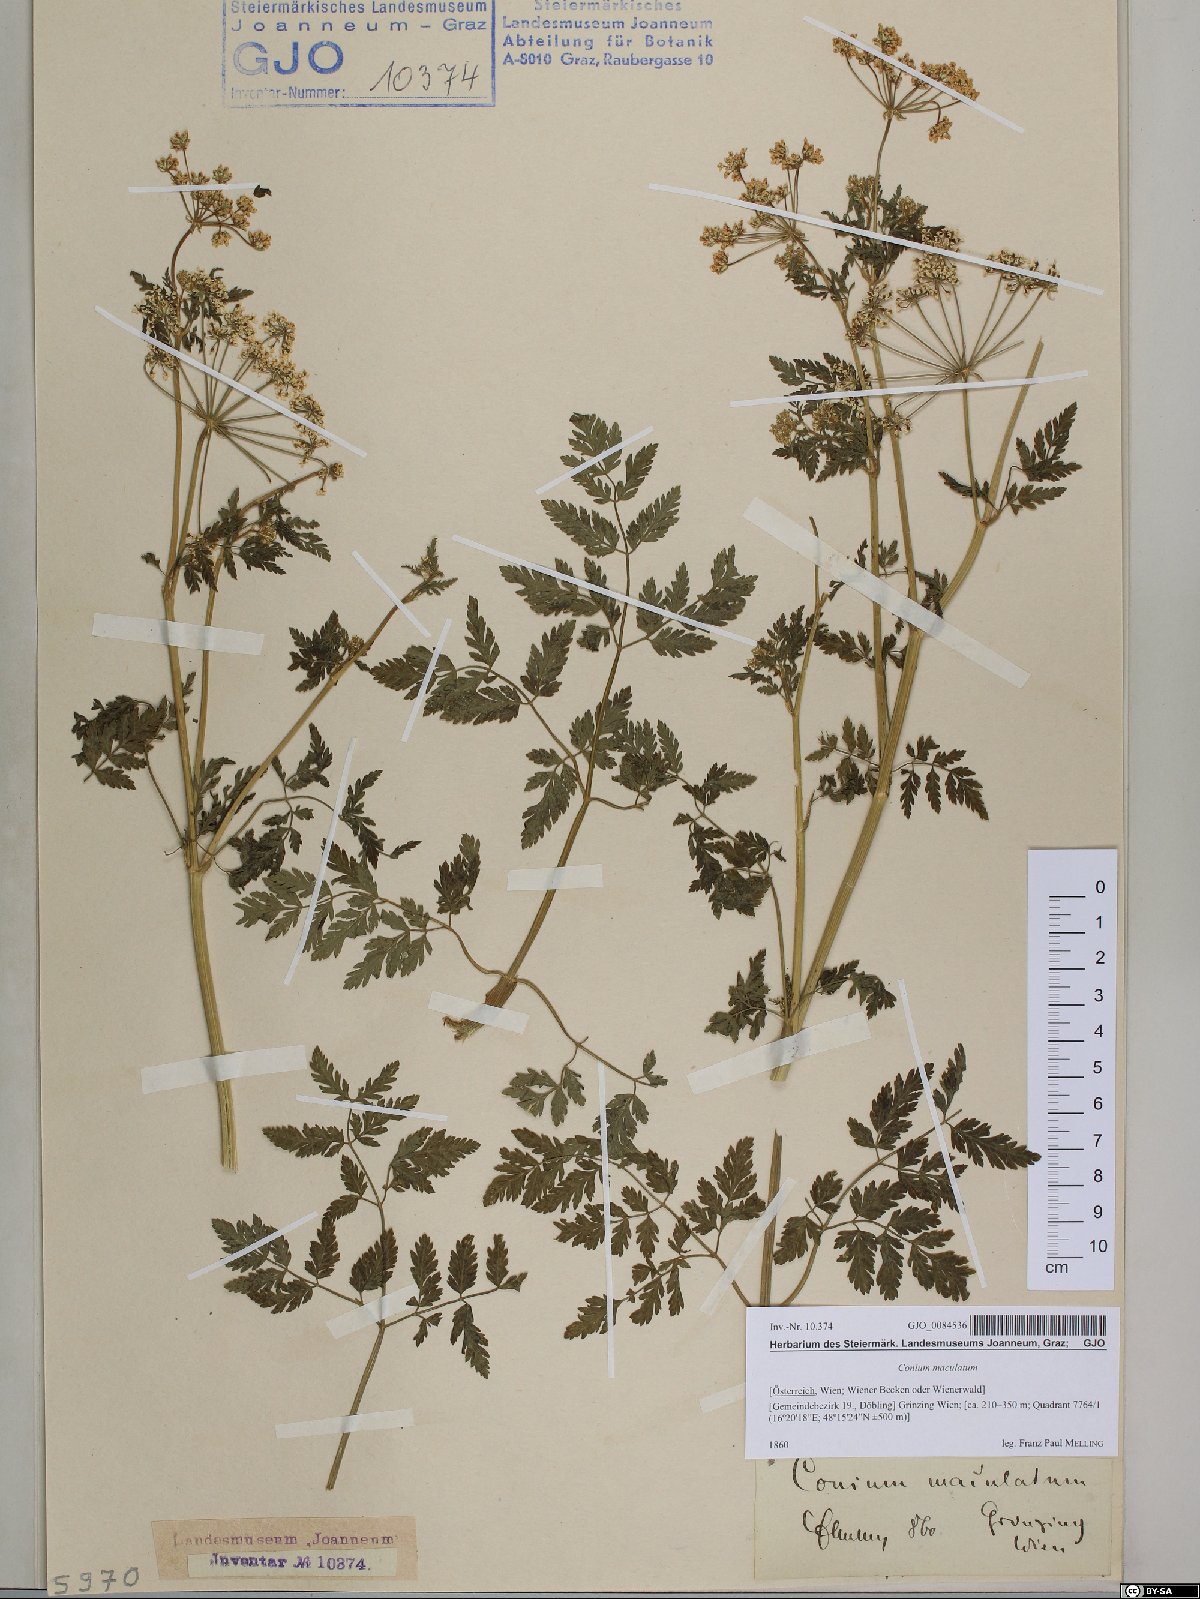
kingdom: Plantae
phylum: Tracheophyta
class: Magnoliopsida
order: Apiales
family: Apiaceae
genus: Conium
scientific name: Conium maculatum
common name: Hemlock
